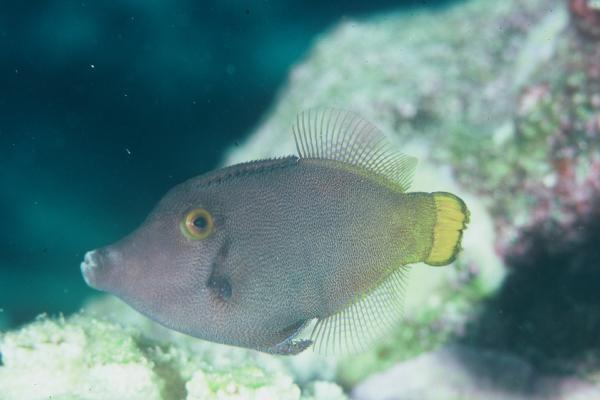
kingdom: Animalia
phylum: Chordata
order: Tetraodontiformes
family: Monacanthidae
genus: Paraluteres
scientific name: Paraluteres prionurus
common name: Black-saddled leatherjacket
